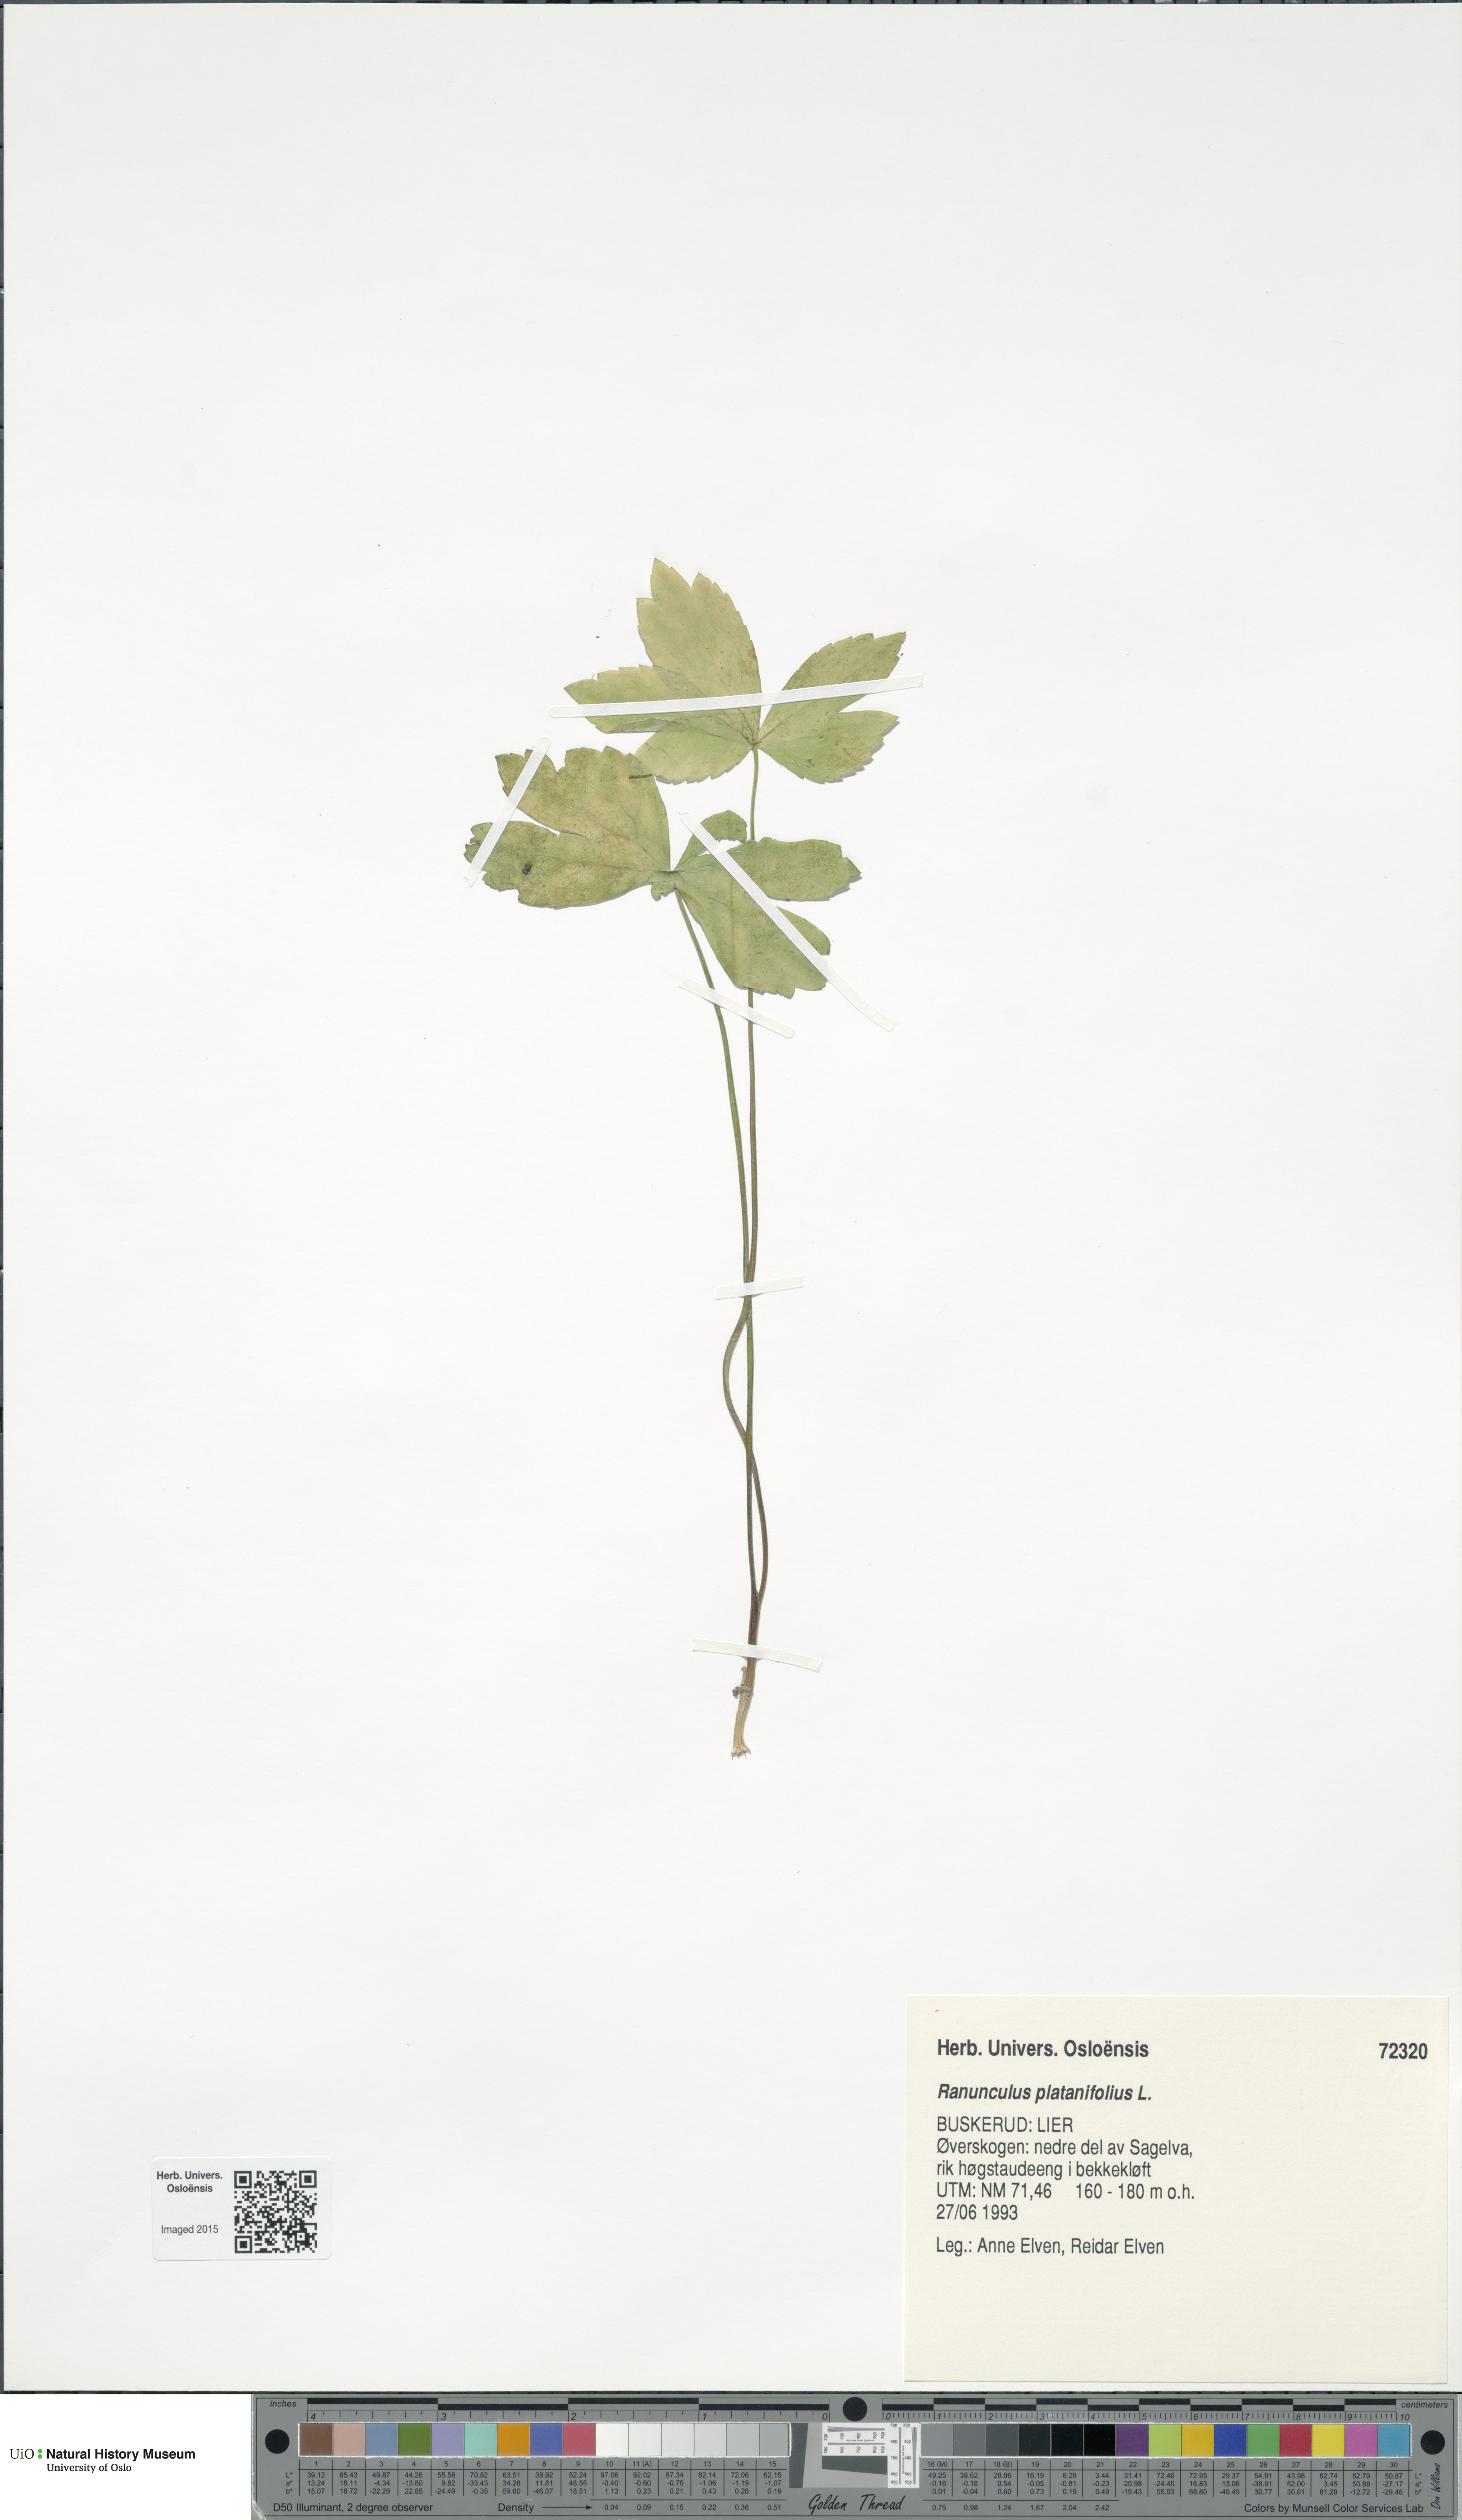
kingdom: Plantae
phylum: Tracheophyta
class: Magnoliopsida
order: Ranunculales
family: Ranunculaceae
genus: Ranunculus
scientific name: Ranunculus platanifolius
